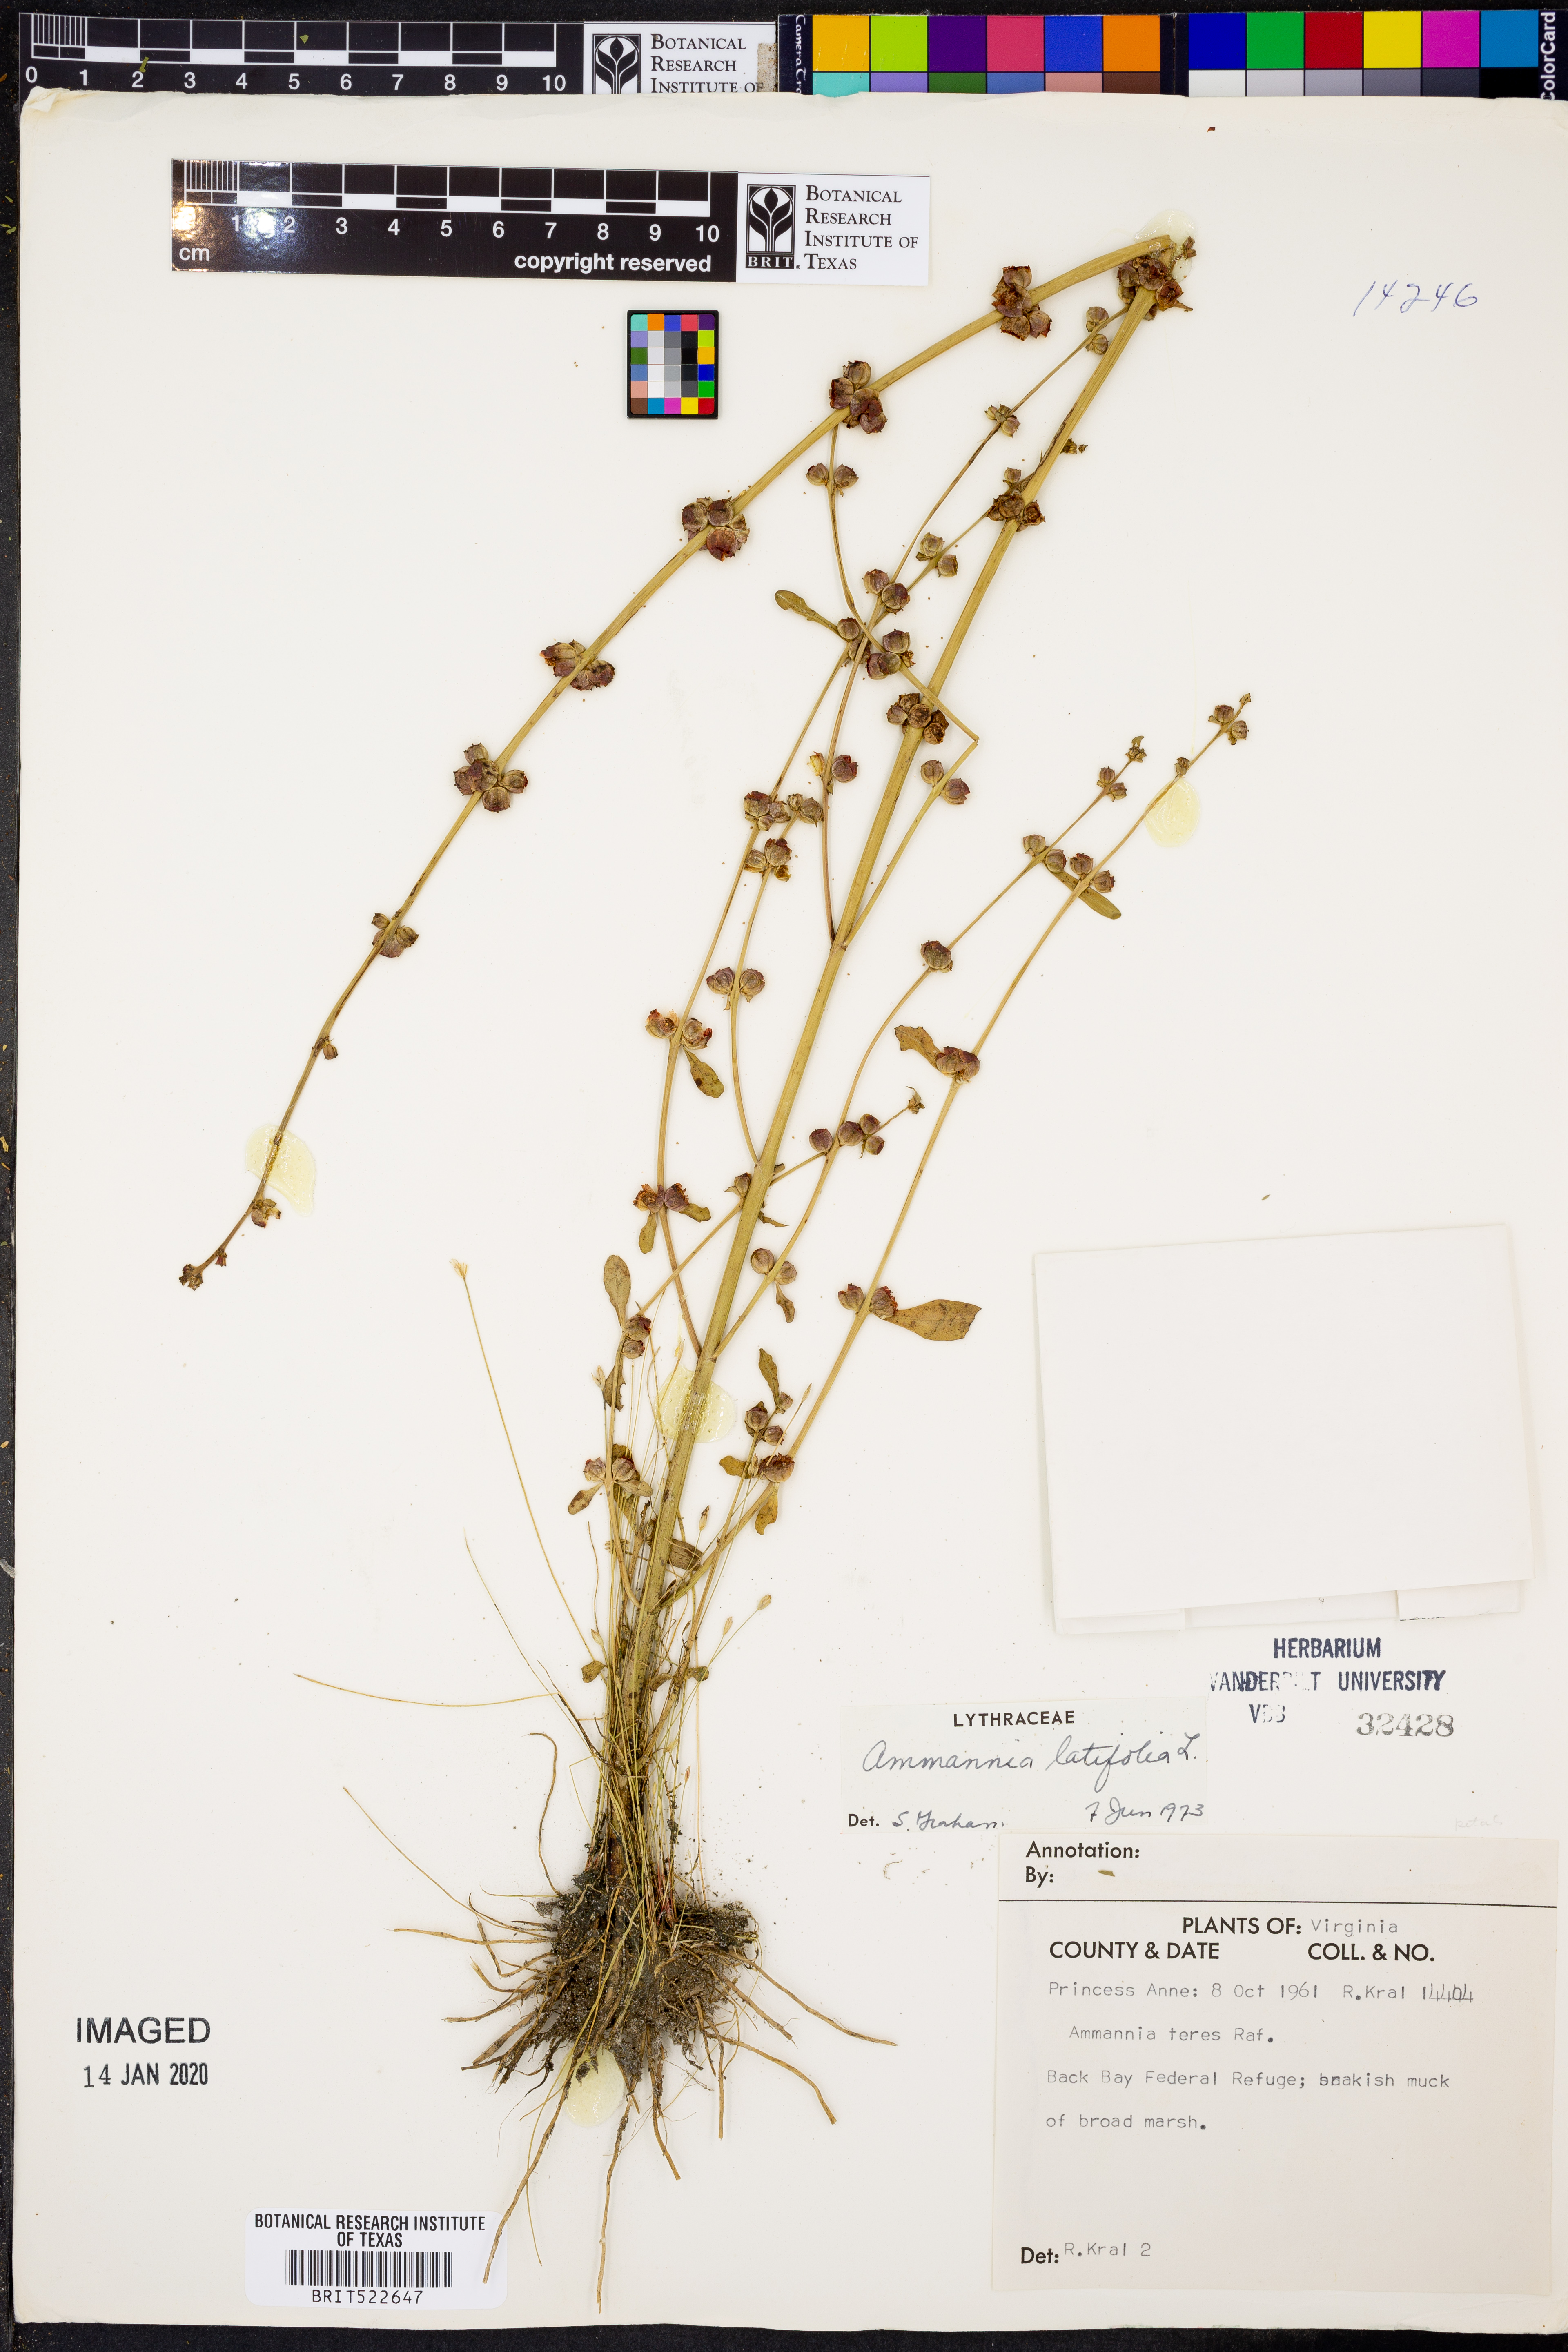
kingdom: Plantae
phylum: Tracheophyta
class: Magnoliopsida
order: Myrtales
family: Lythraceae
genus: Ammannia
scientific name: Ammannia latifolia
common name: Toothcup
